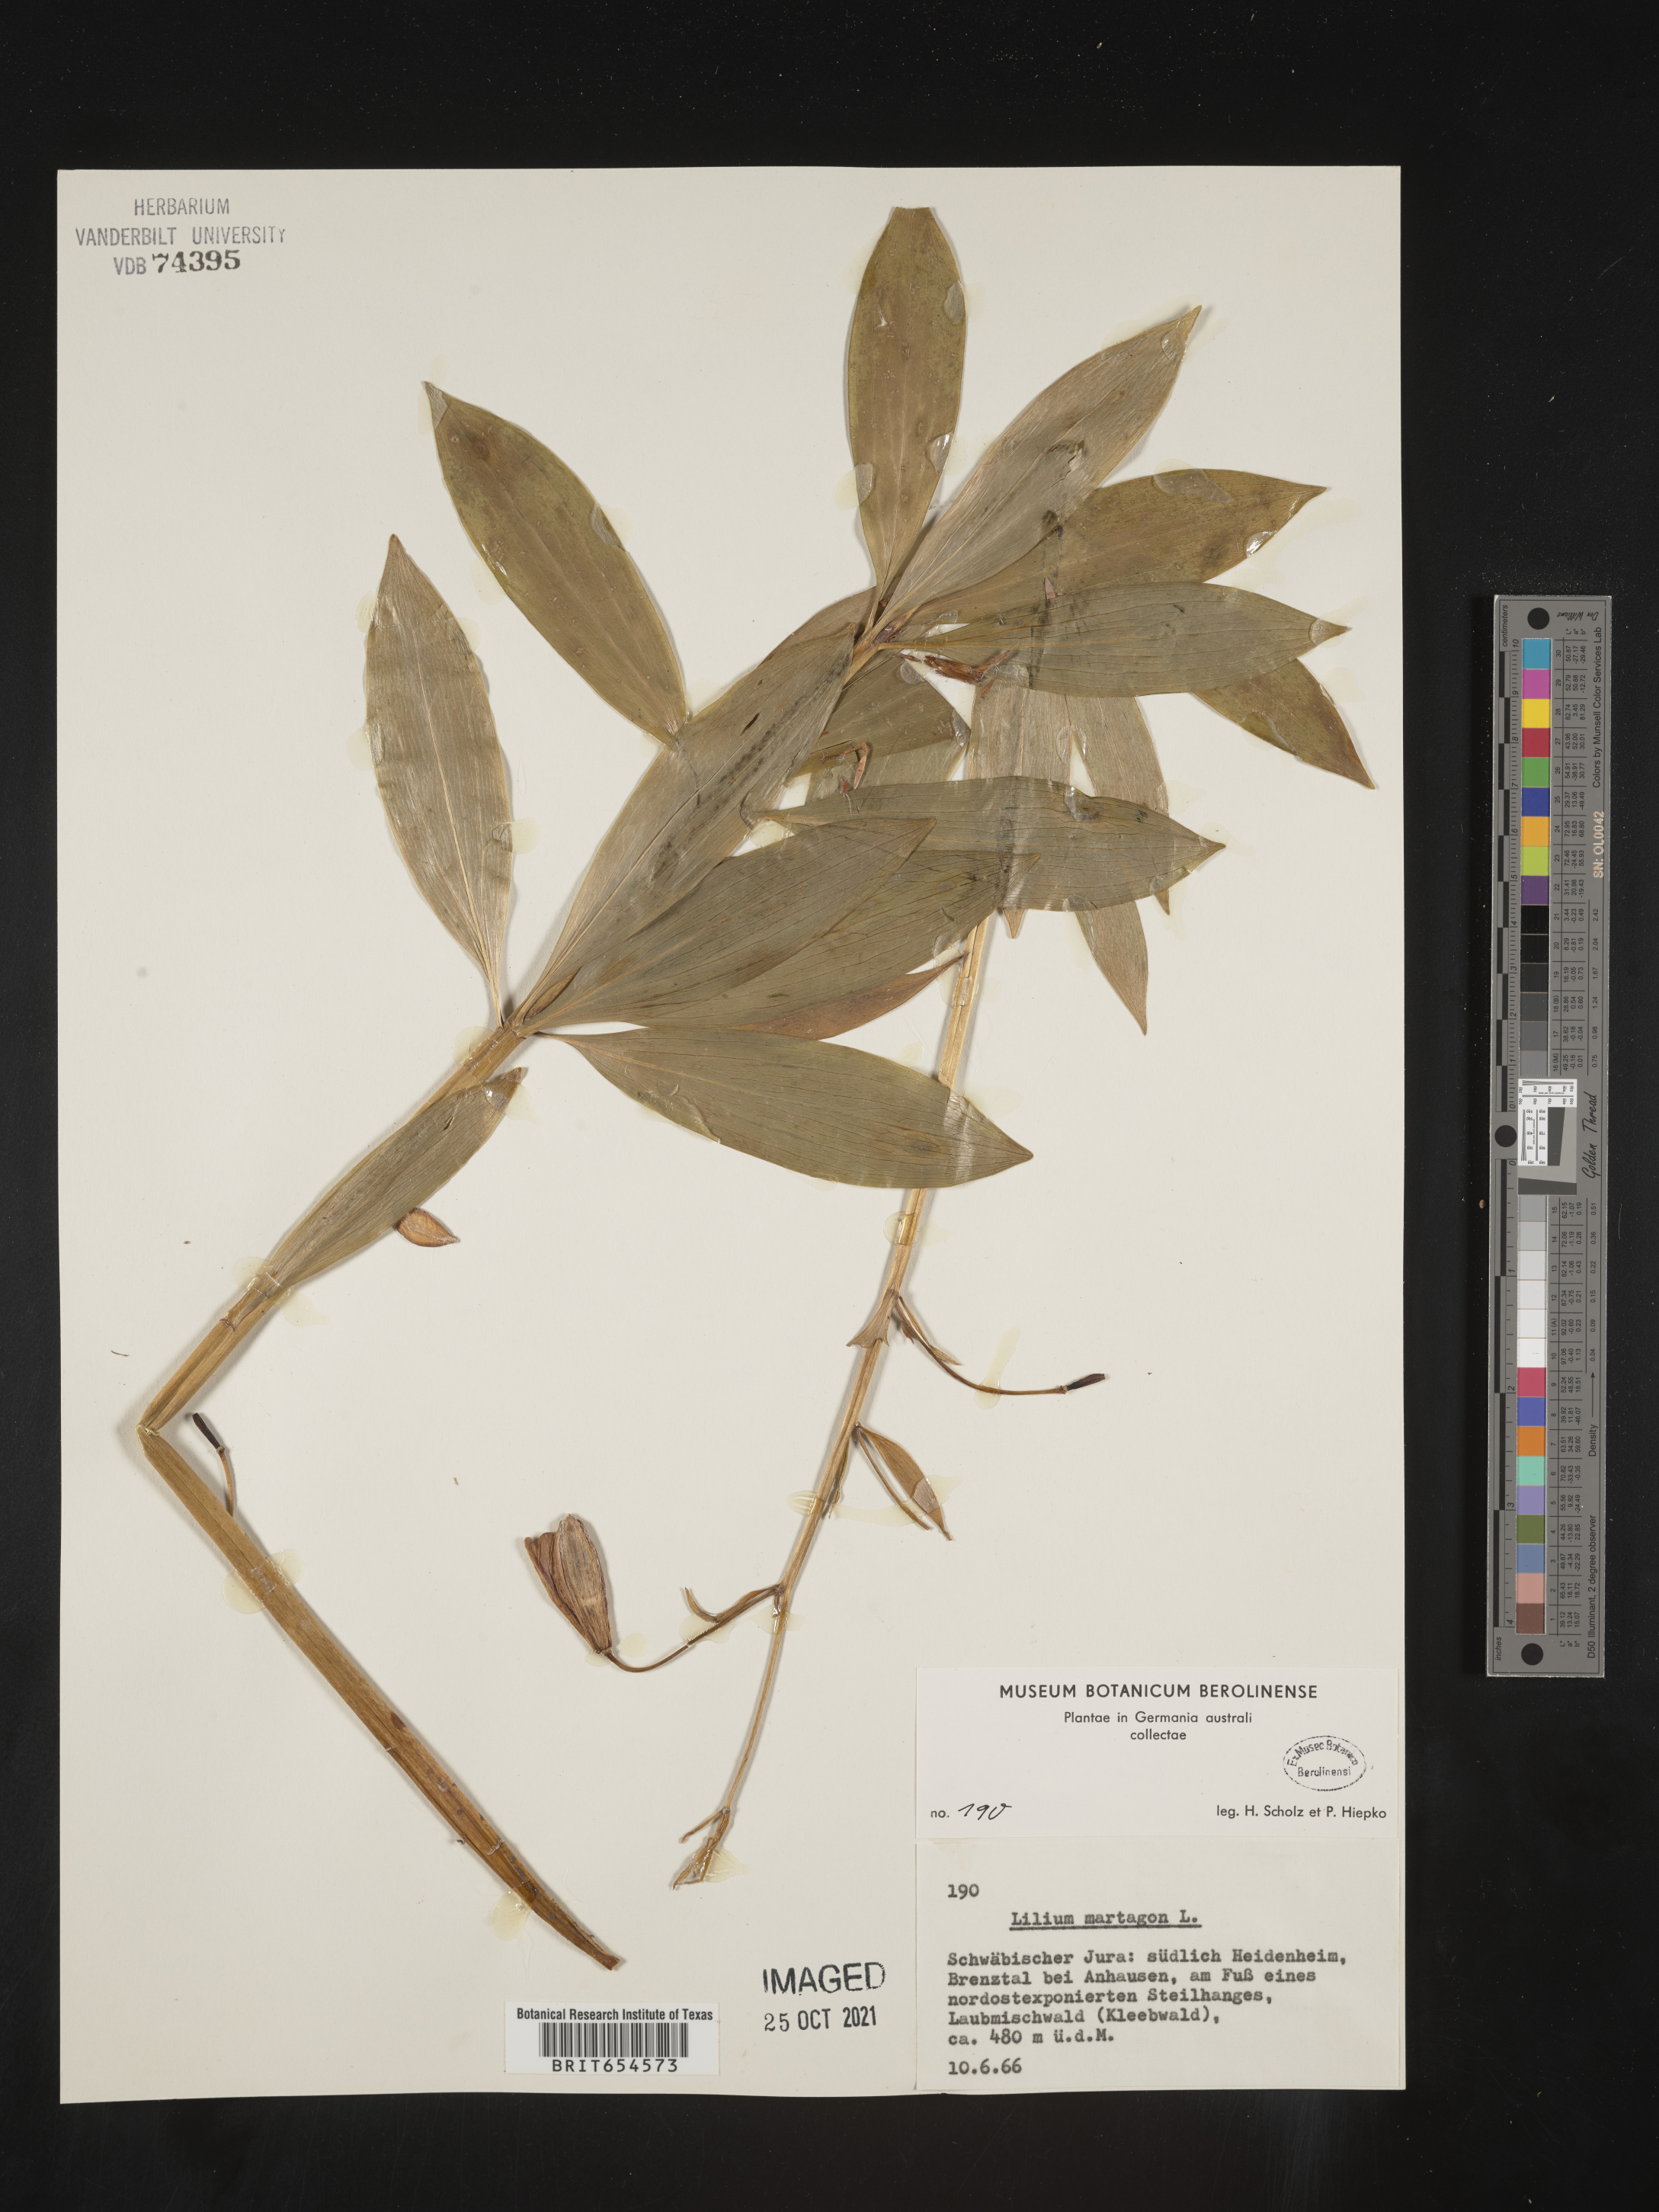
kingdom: Plantae
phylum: Tracheophyta
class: Liliopsida
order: Liliales
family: Liliaceae
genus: Lilium
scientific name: Lilium
